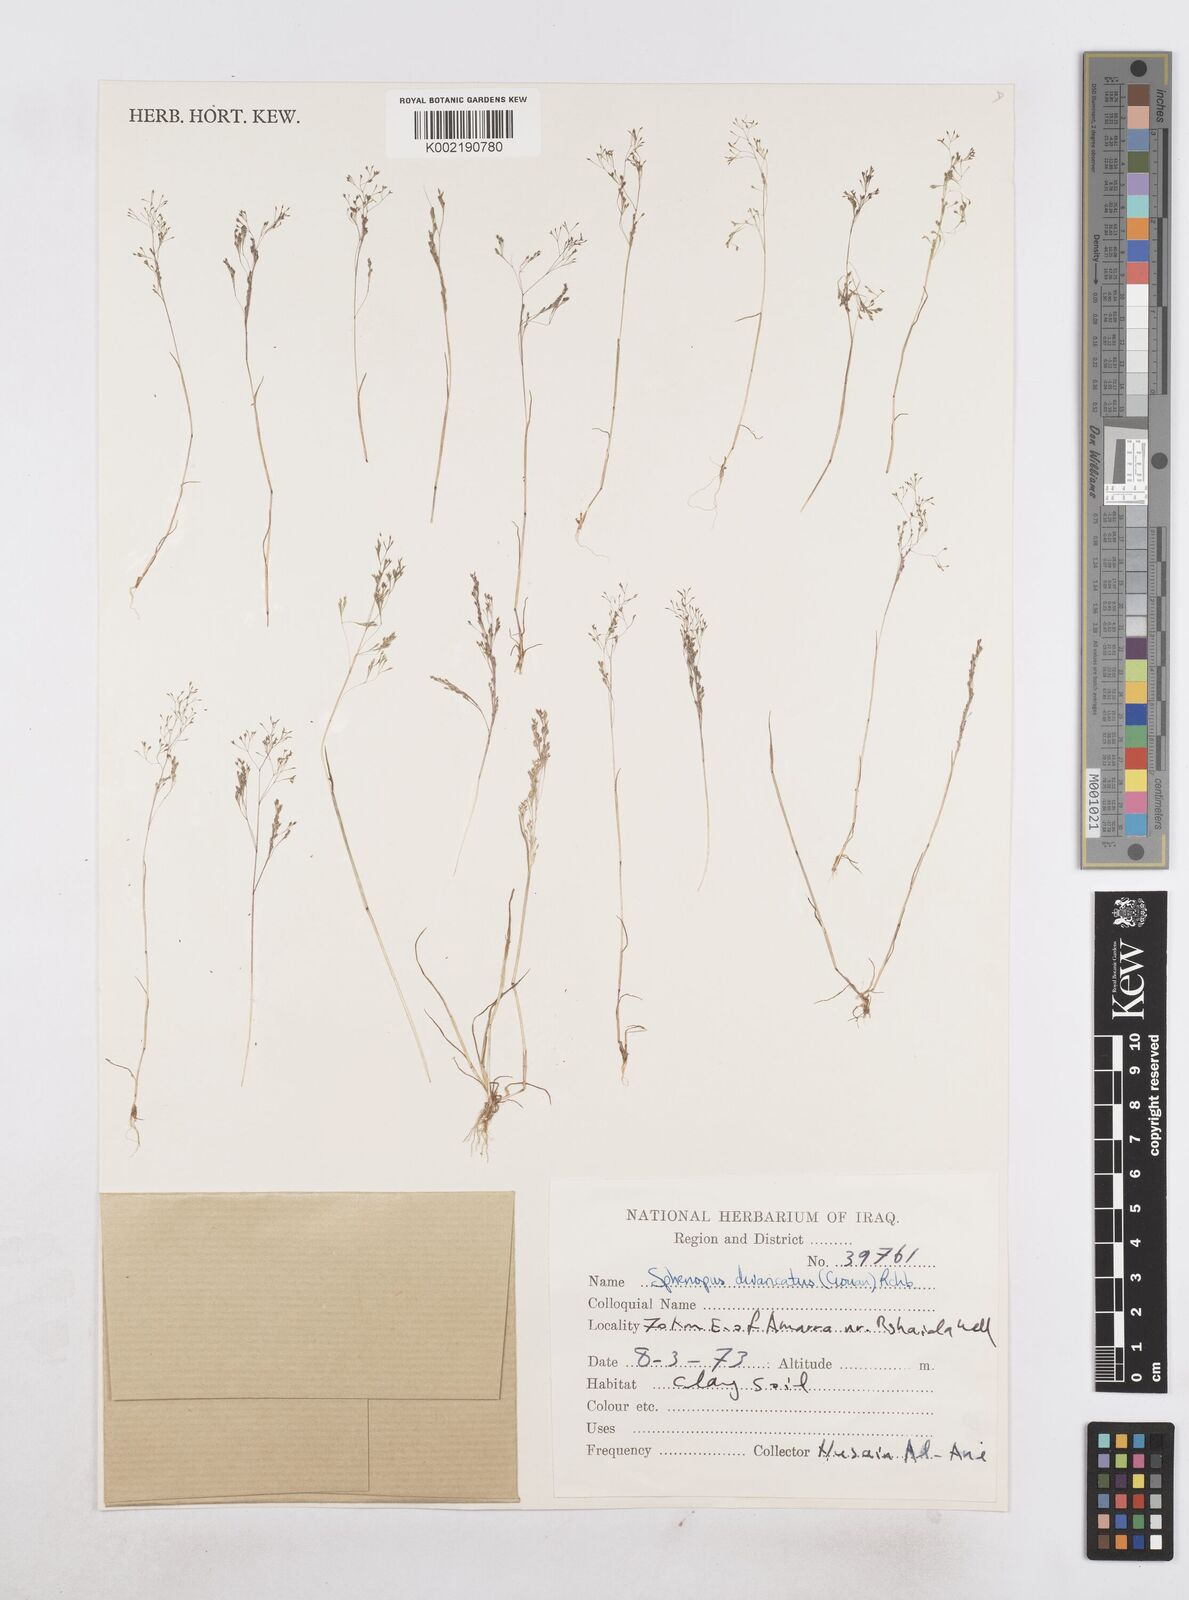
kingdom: Plantae
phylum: Tracheophyta
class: Liliopsida
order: Poales
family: Poaceae
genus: Sphenopus
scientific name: Sphenopus divaricatus
